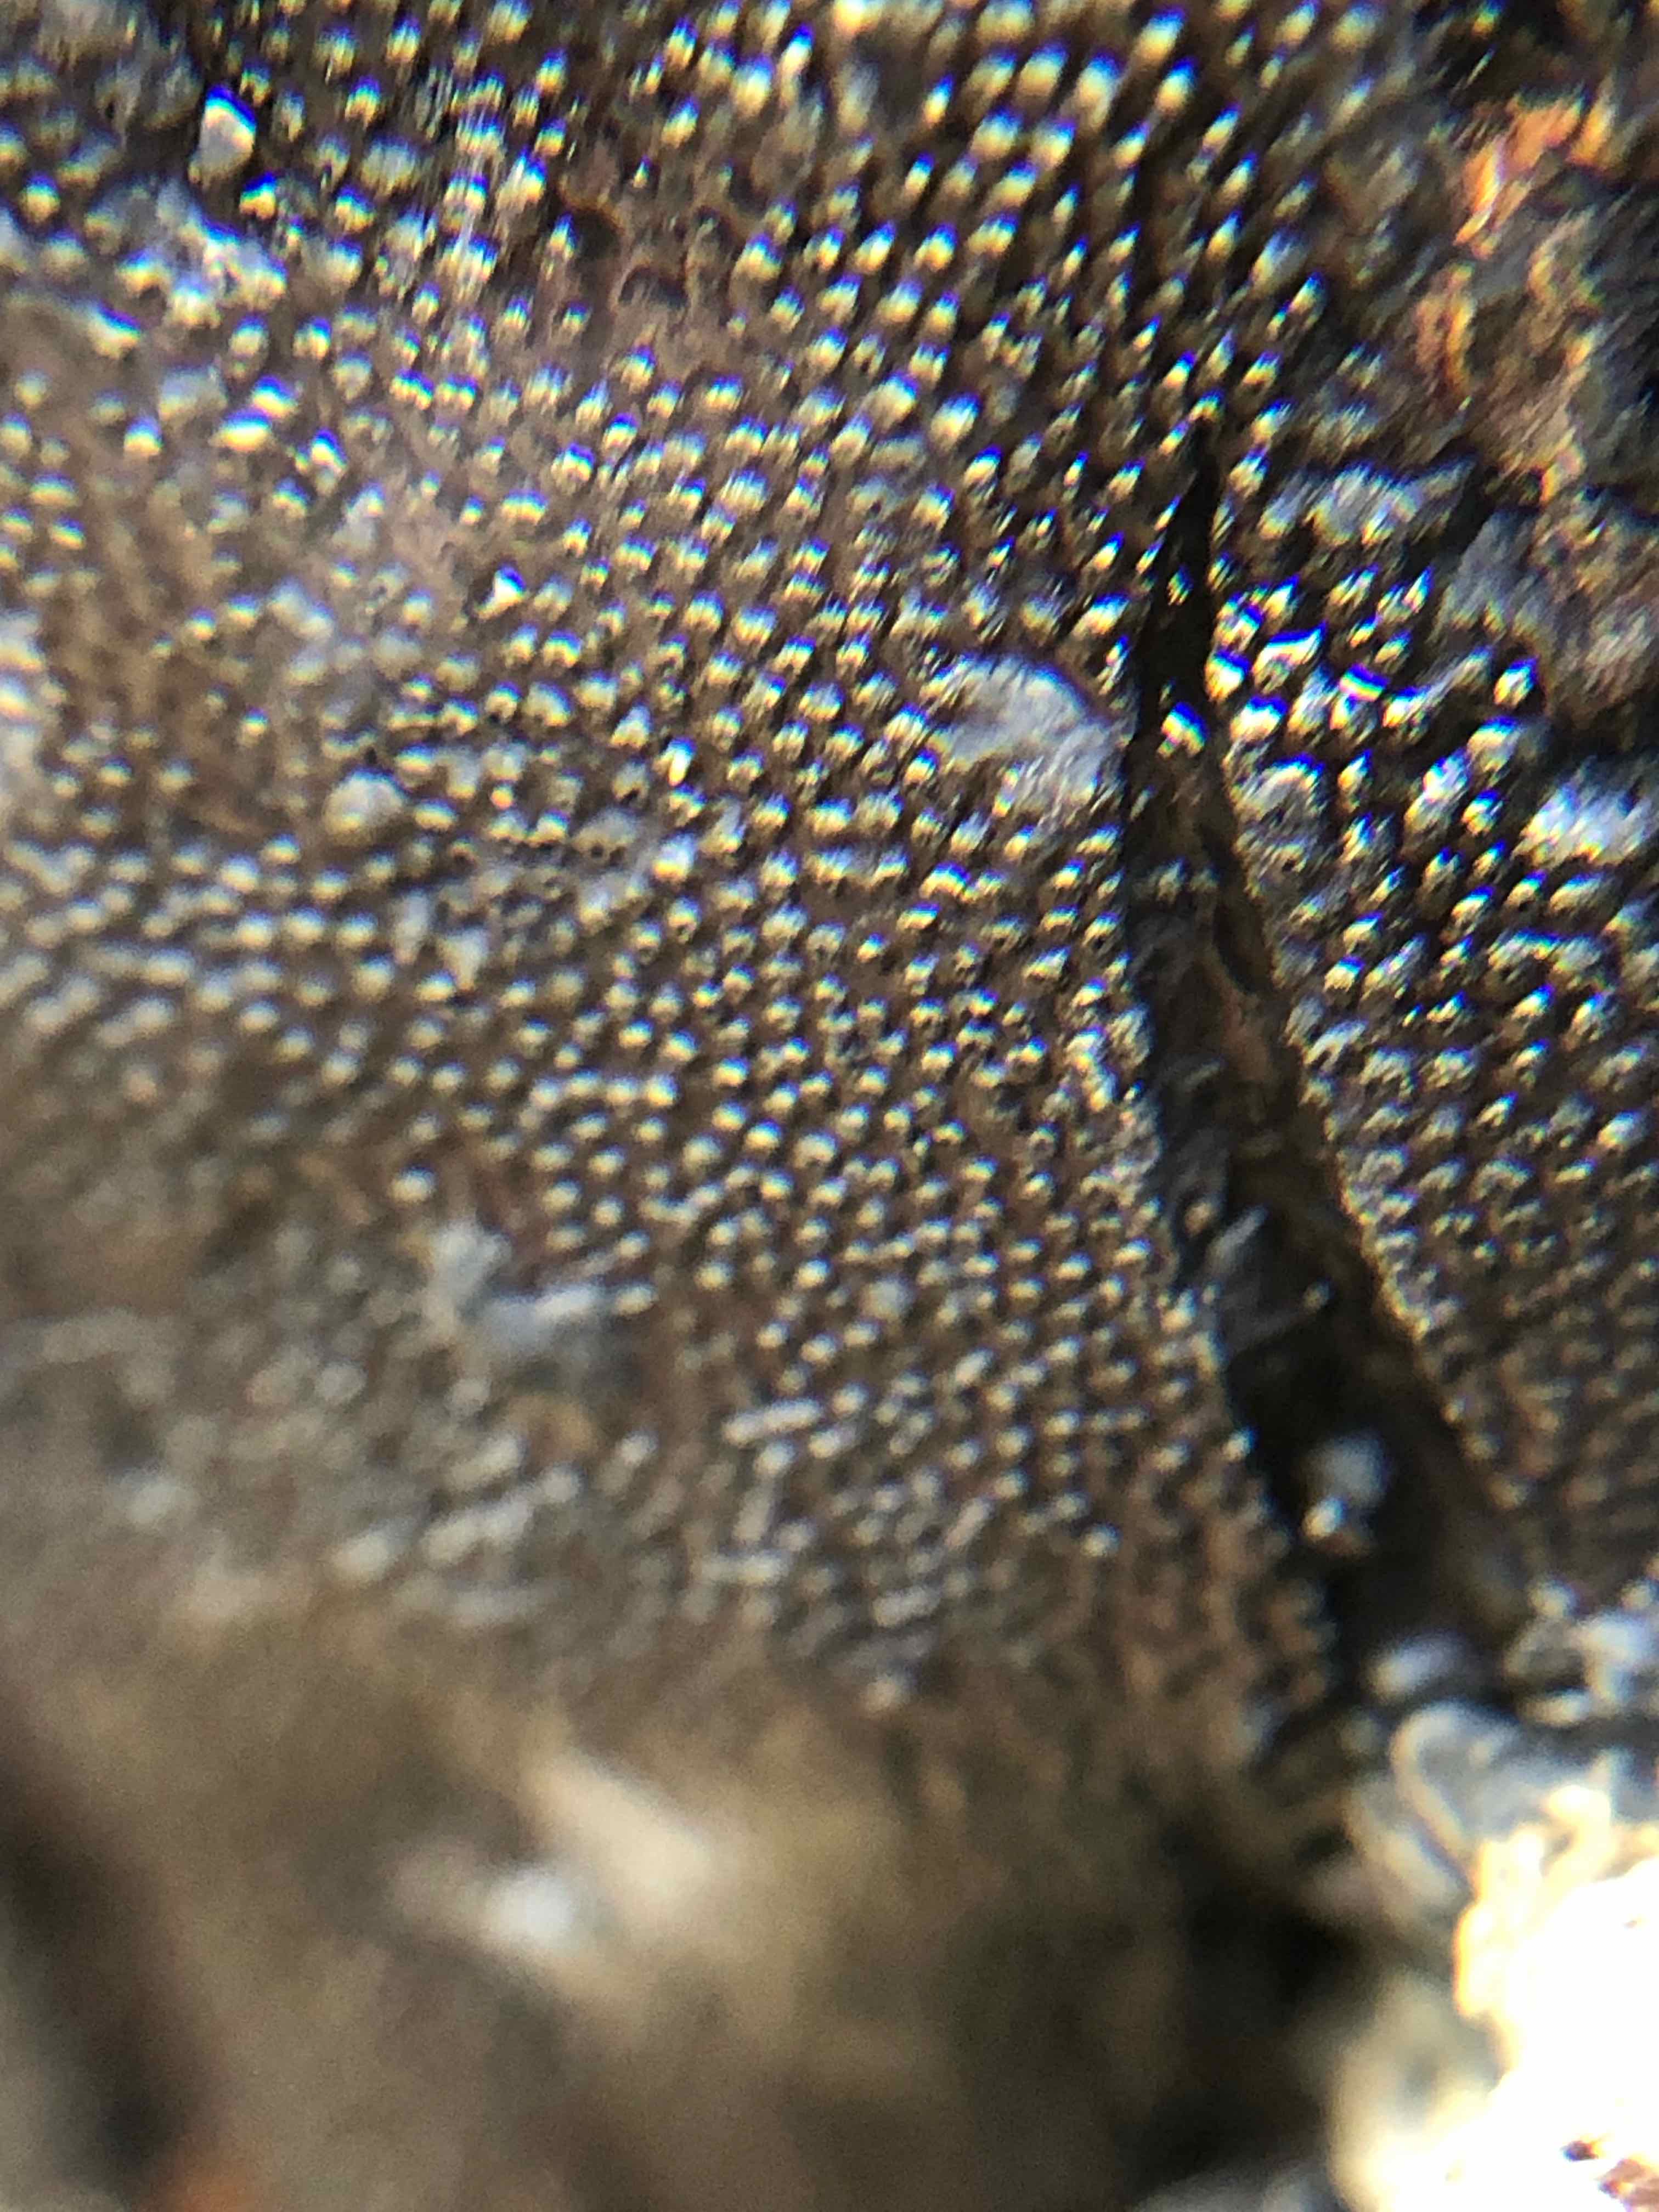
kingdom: Fungi
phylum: Ascomycota
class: Sordariomycetes
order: Boliniales
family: Boliniaceae
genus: Camarops
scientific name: Camarops polysperma
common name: elle-kulsnegl
